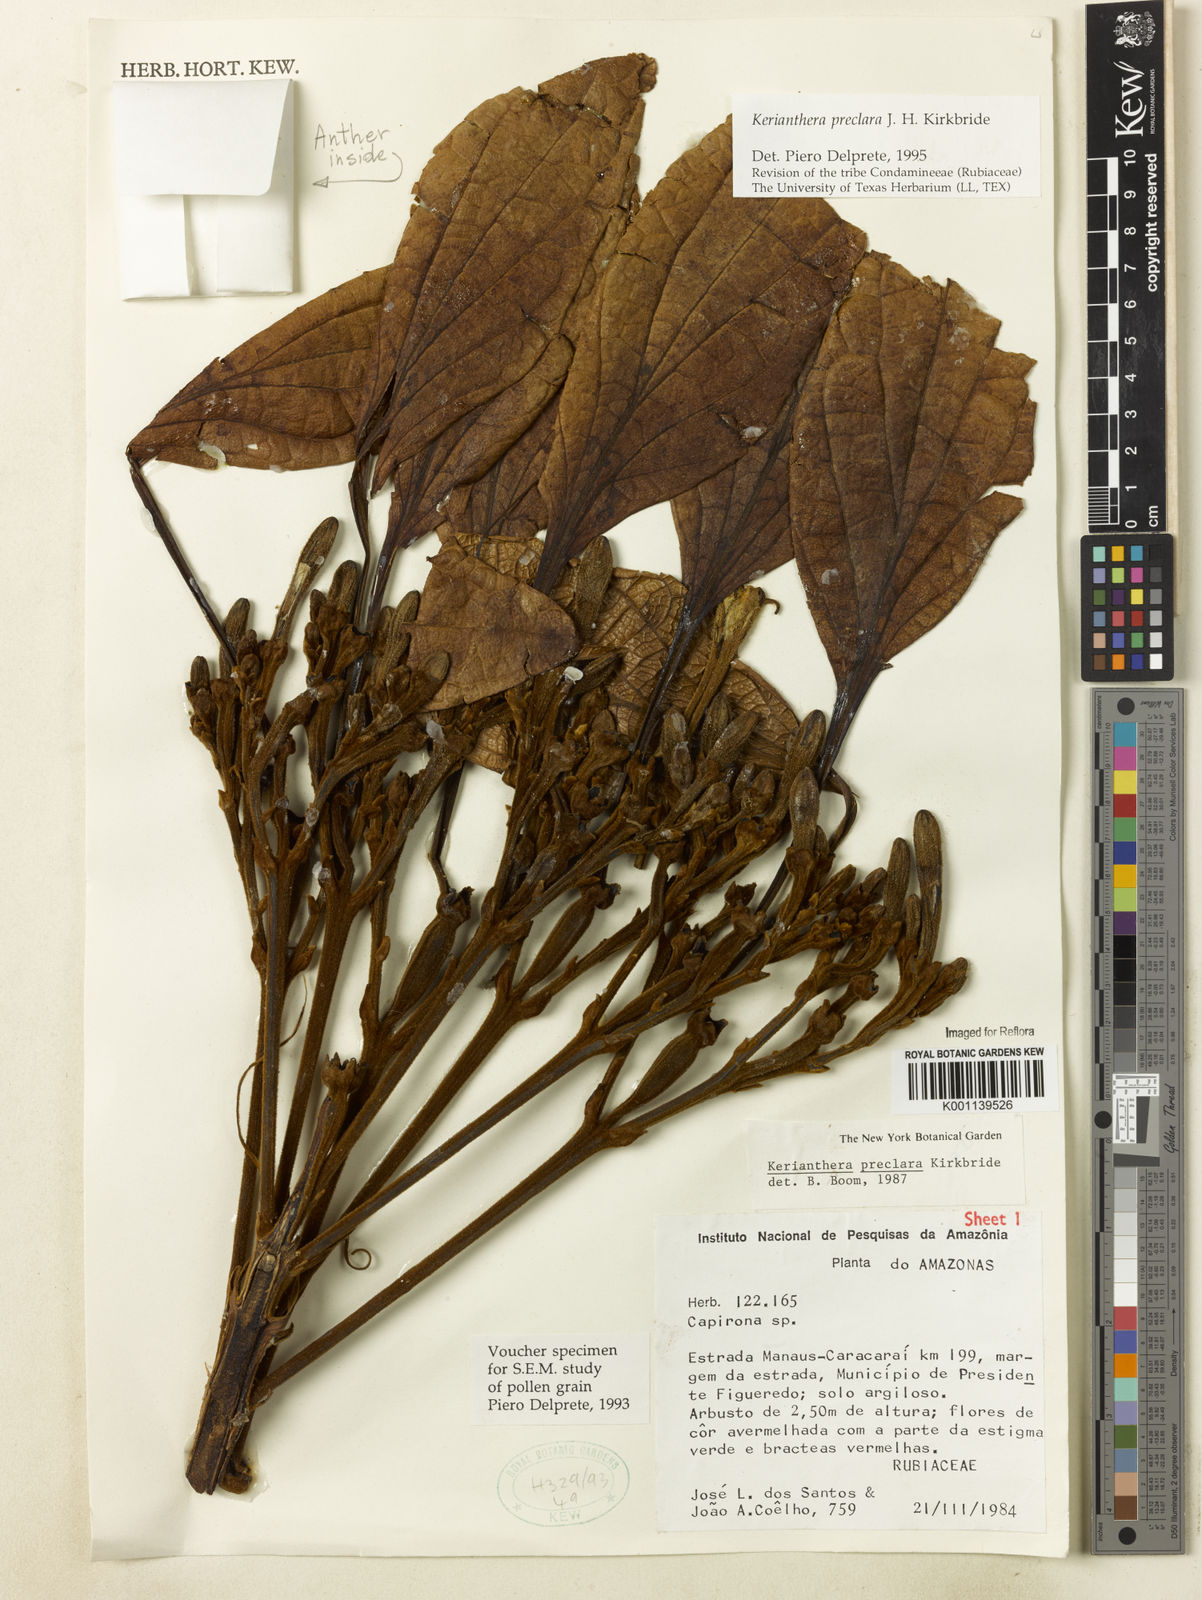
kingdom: Plantae
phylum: Tracheophyta
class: Magnoliopsida
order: Gentianales
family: Rubiaceae
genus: Kerianthera
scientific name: Kerianthera preclara
